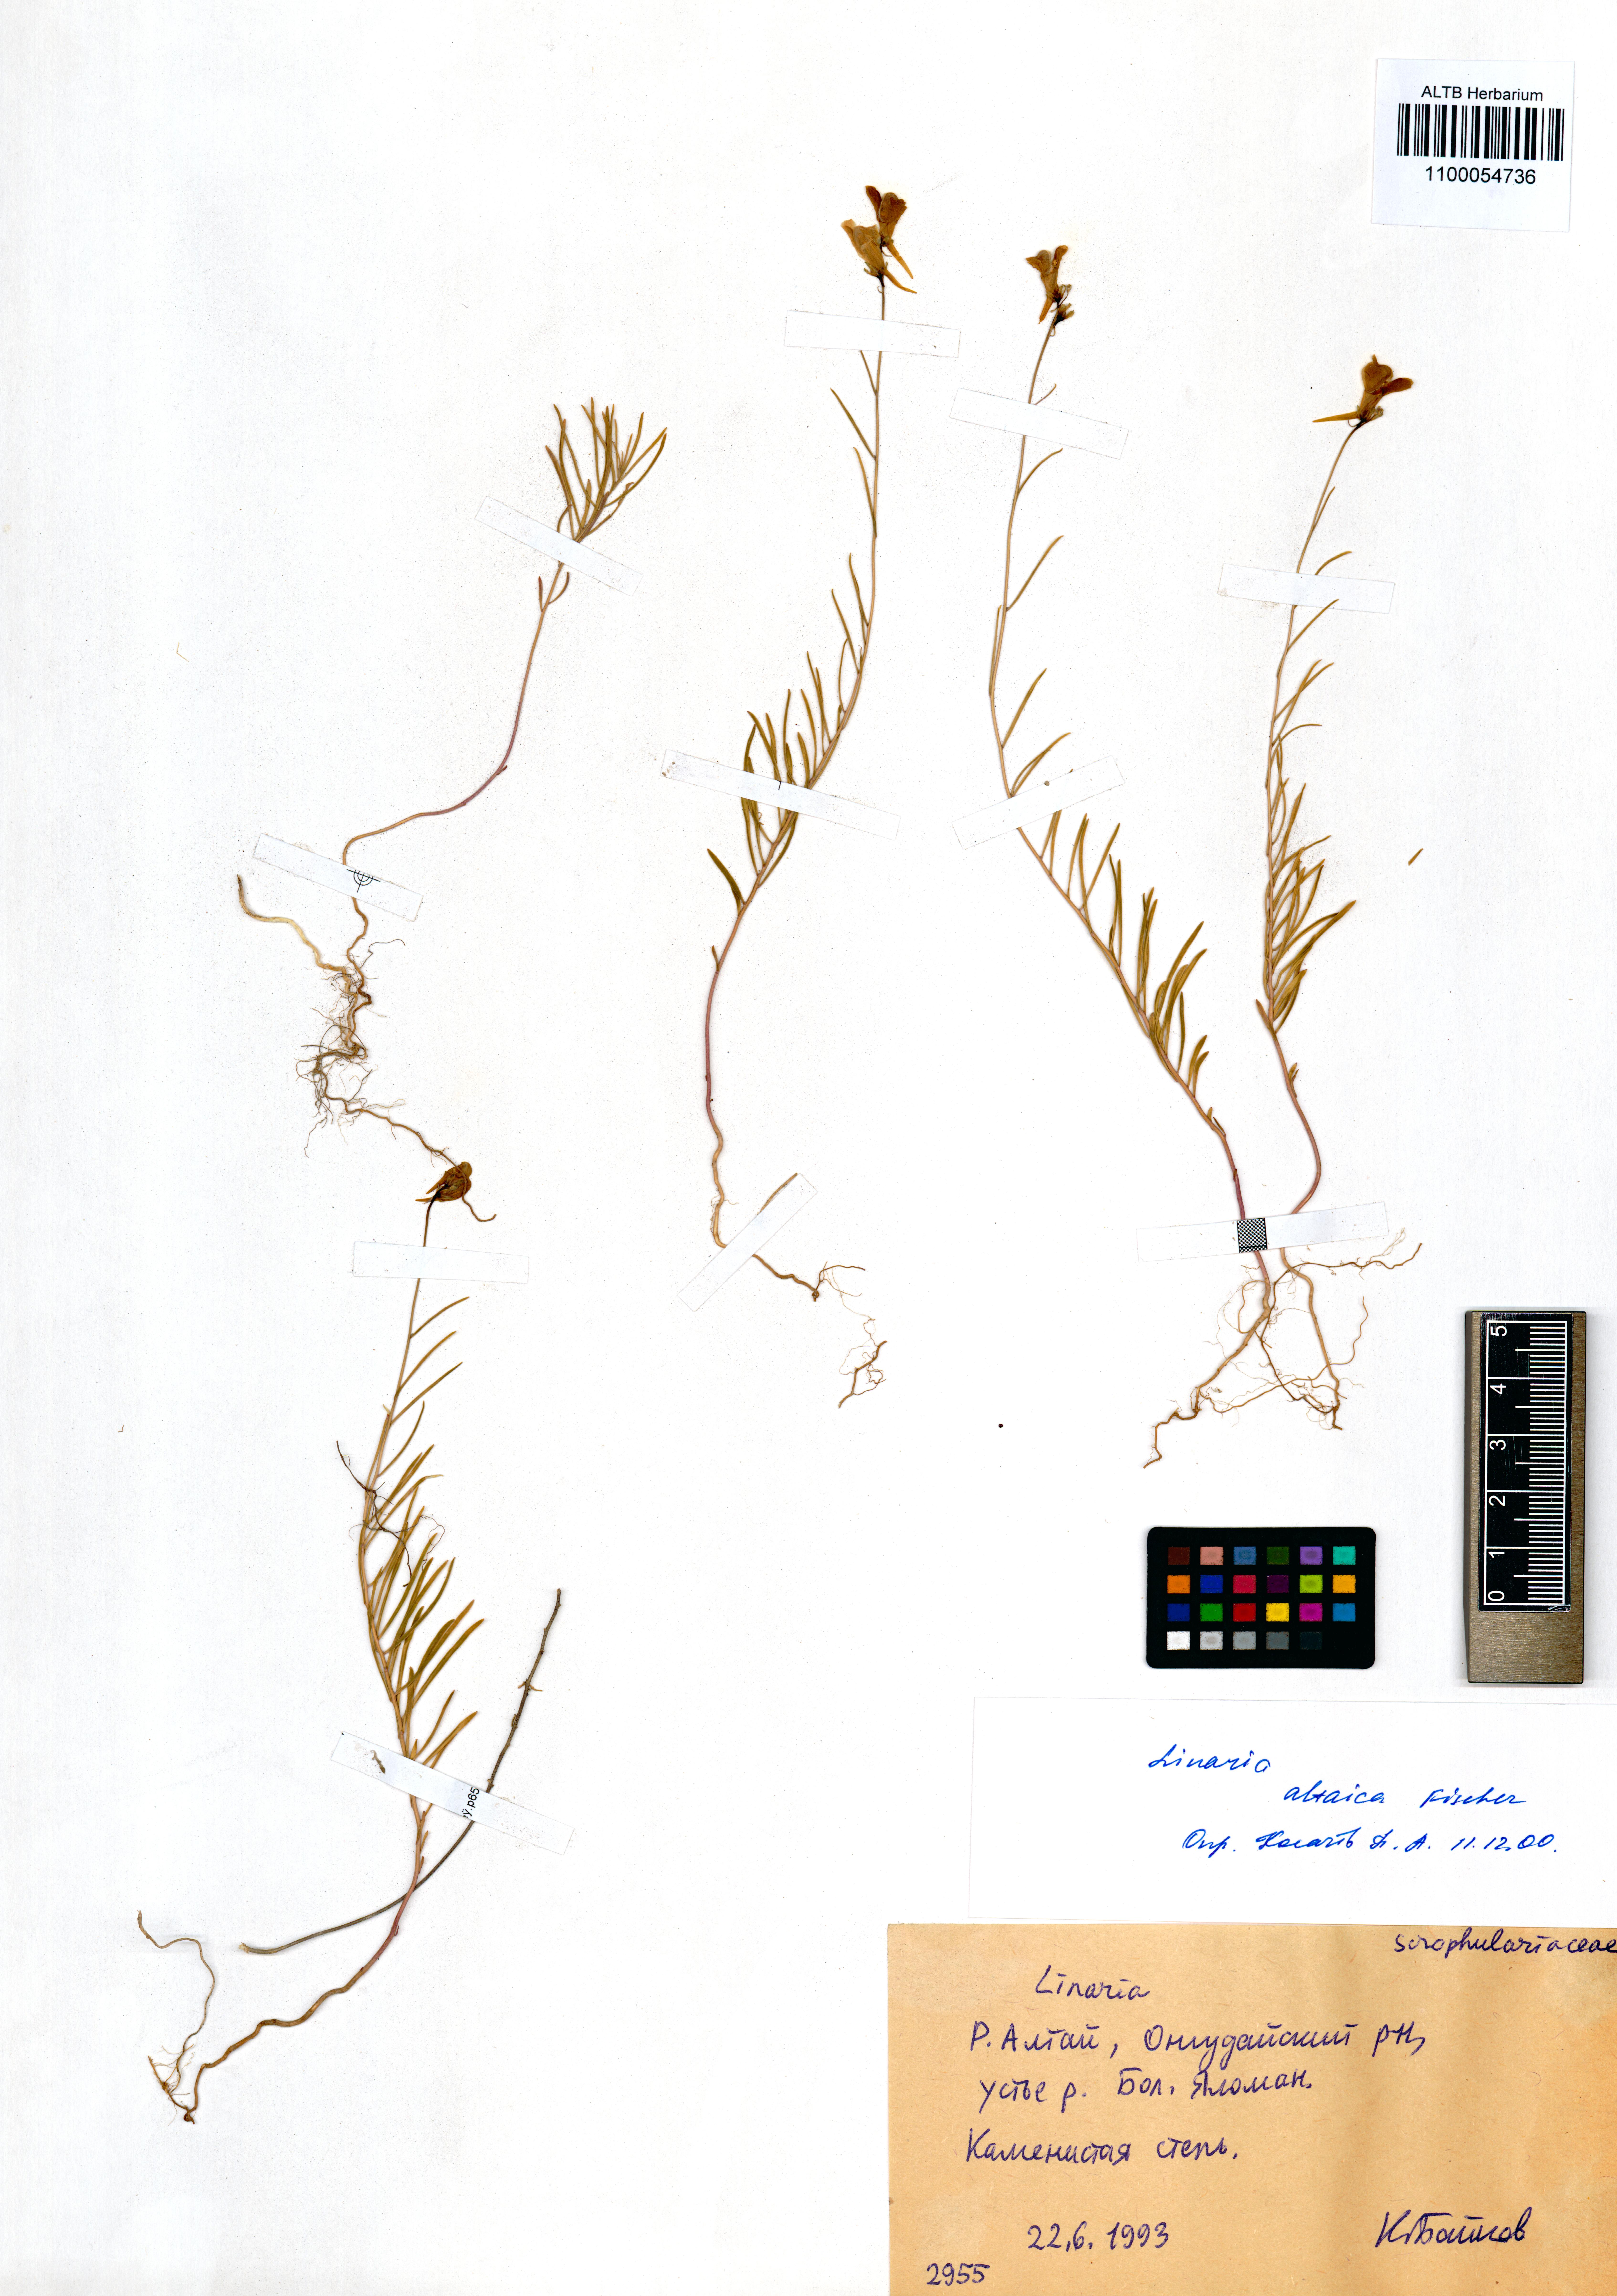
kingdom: Plantae
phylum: Tracheophyta
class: Magnoliopsida
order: Lamiales
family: Plantaginaceae
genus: Linaria
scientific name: Linaria altaica
